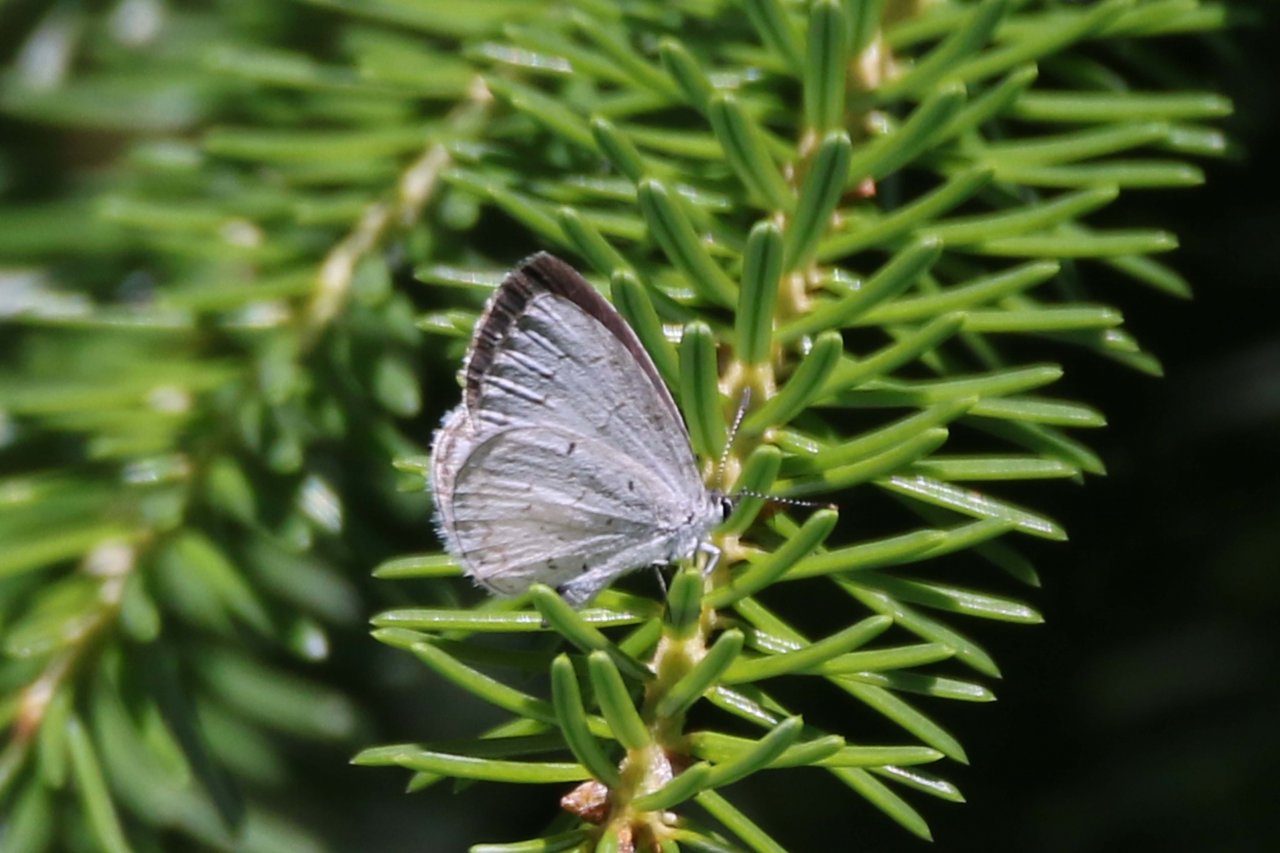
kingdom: Animalia
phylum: Arthropoda
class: Insecta
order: Lepidoptera
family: Lycaenidae
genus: Celastrina
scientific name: Celastrina
